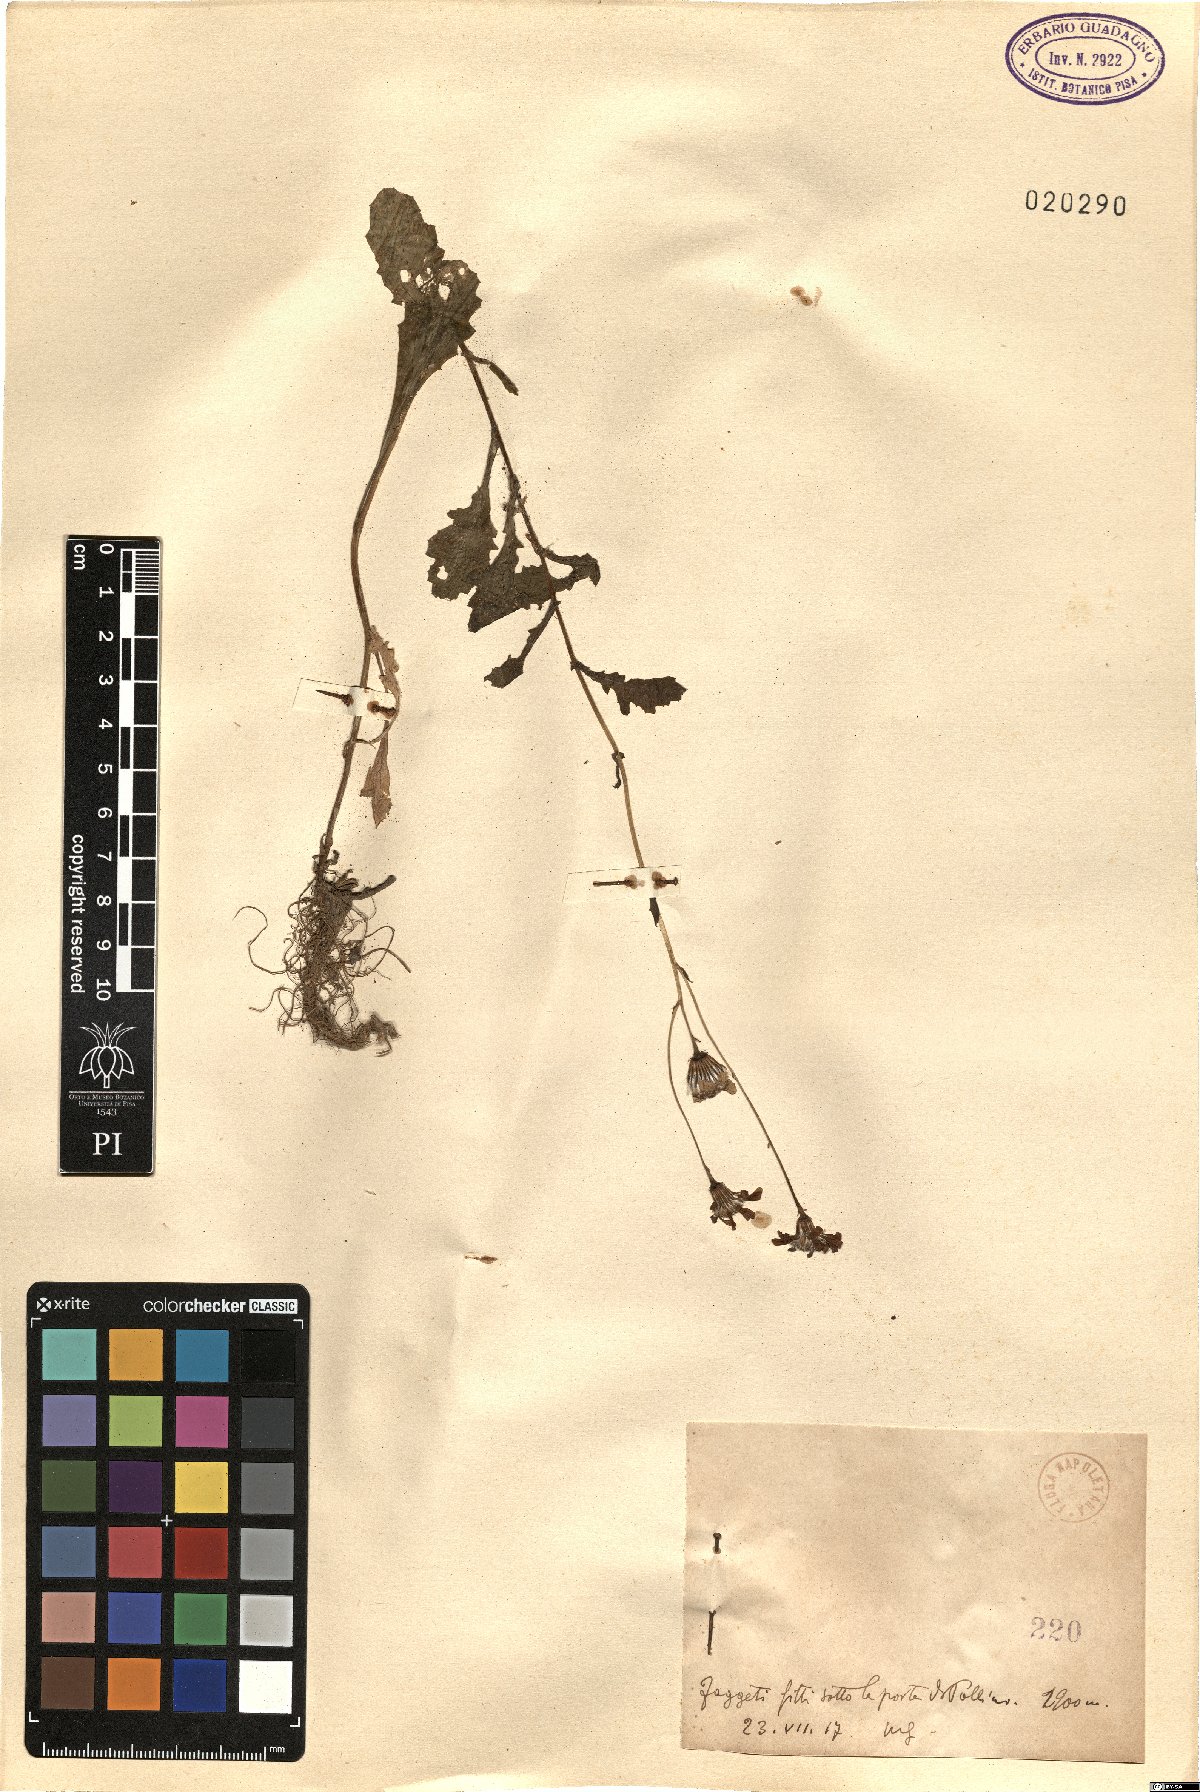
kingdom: Plantae
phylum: Tracheophyta
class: Magnoliopsida
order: Asterales
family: Asteraceae
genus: Senecio
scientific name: Senecio
